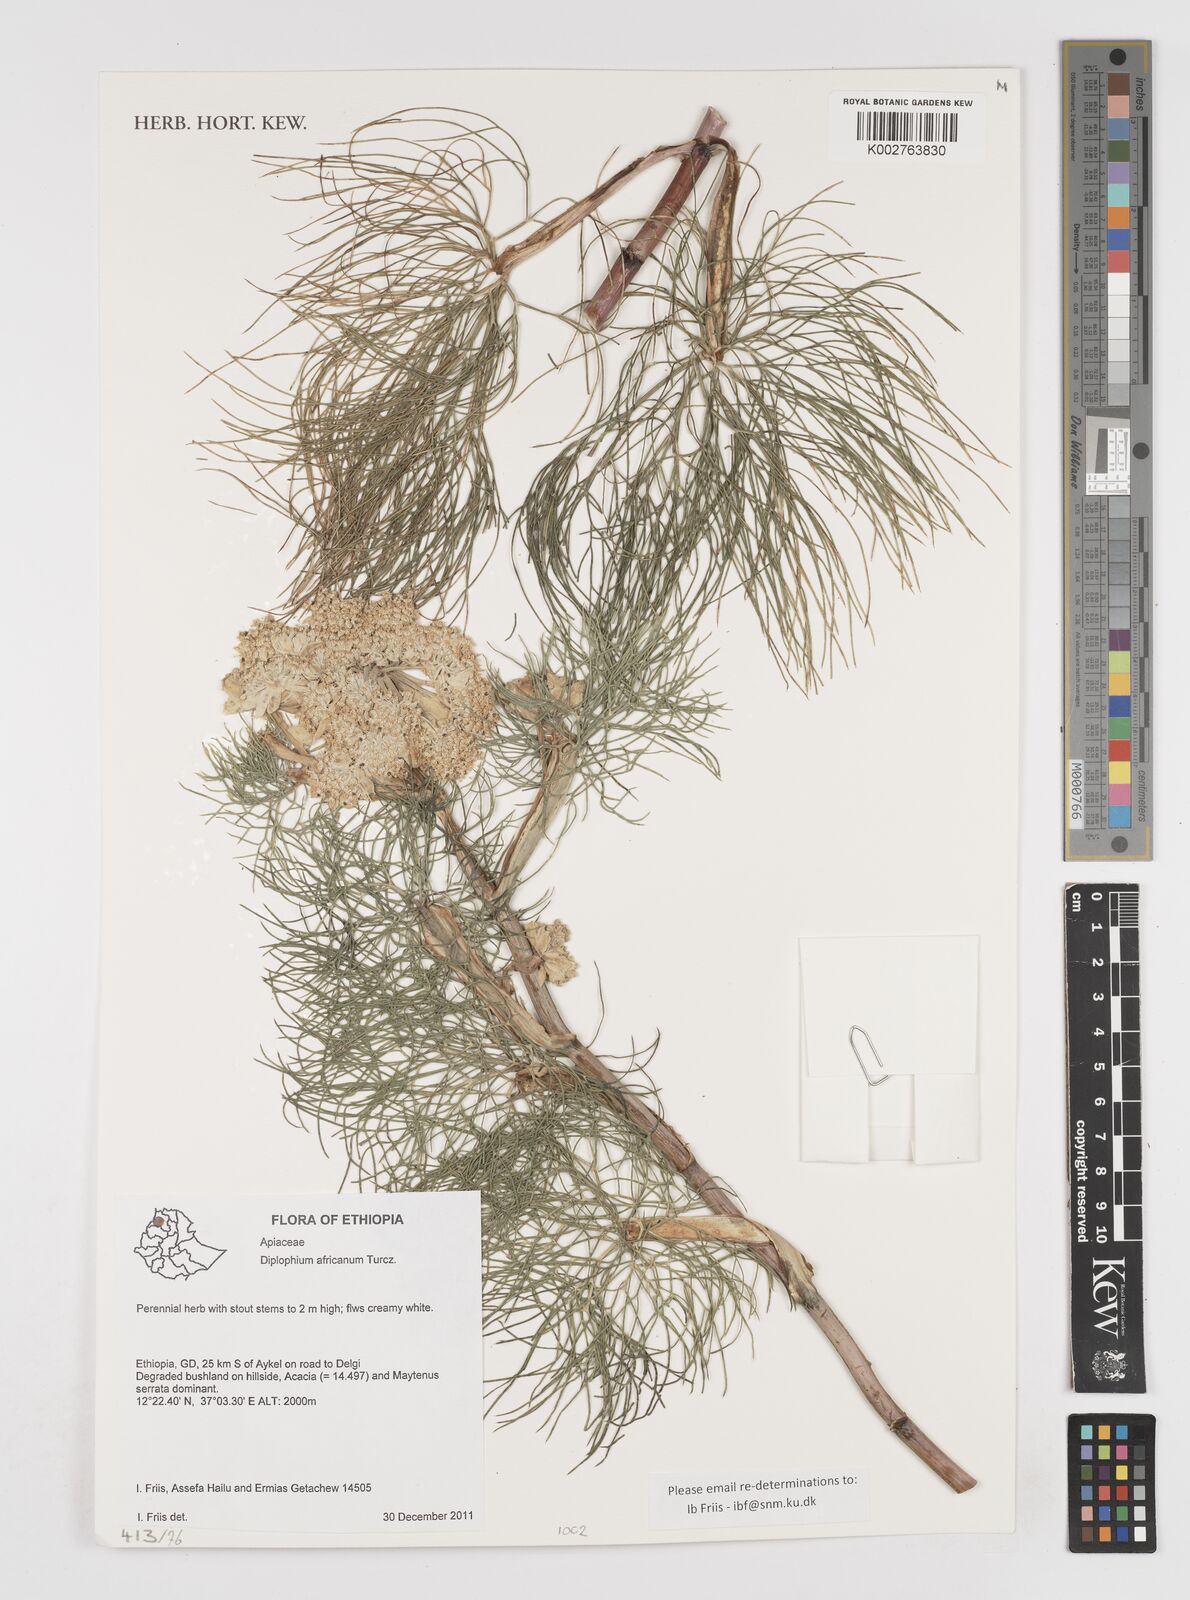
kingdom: Plantae
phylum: Tracheophyta
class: Magnoliopsida
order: Apiales
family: Apiaceae
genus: Diplolophium
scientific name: Diplolophium africanum
